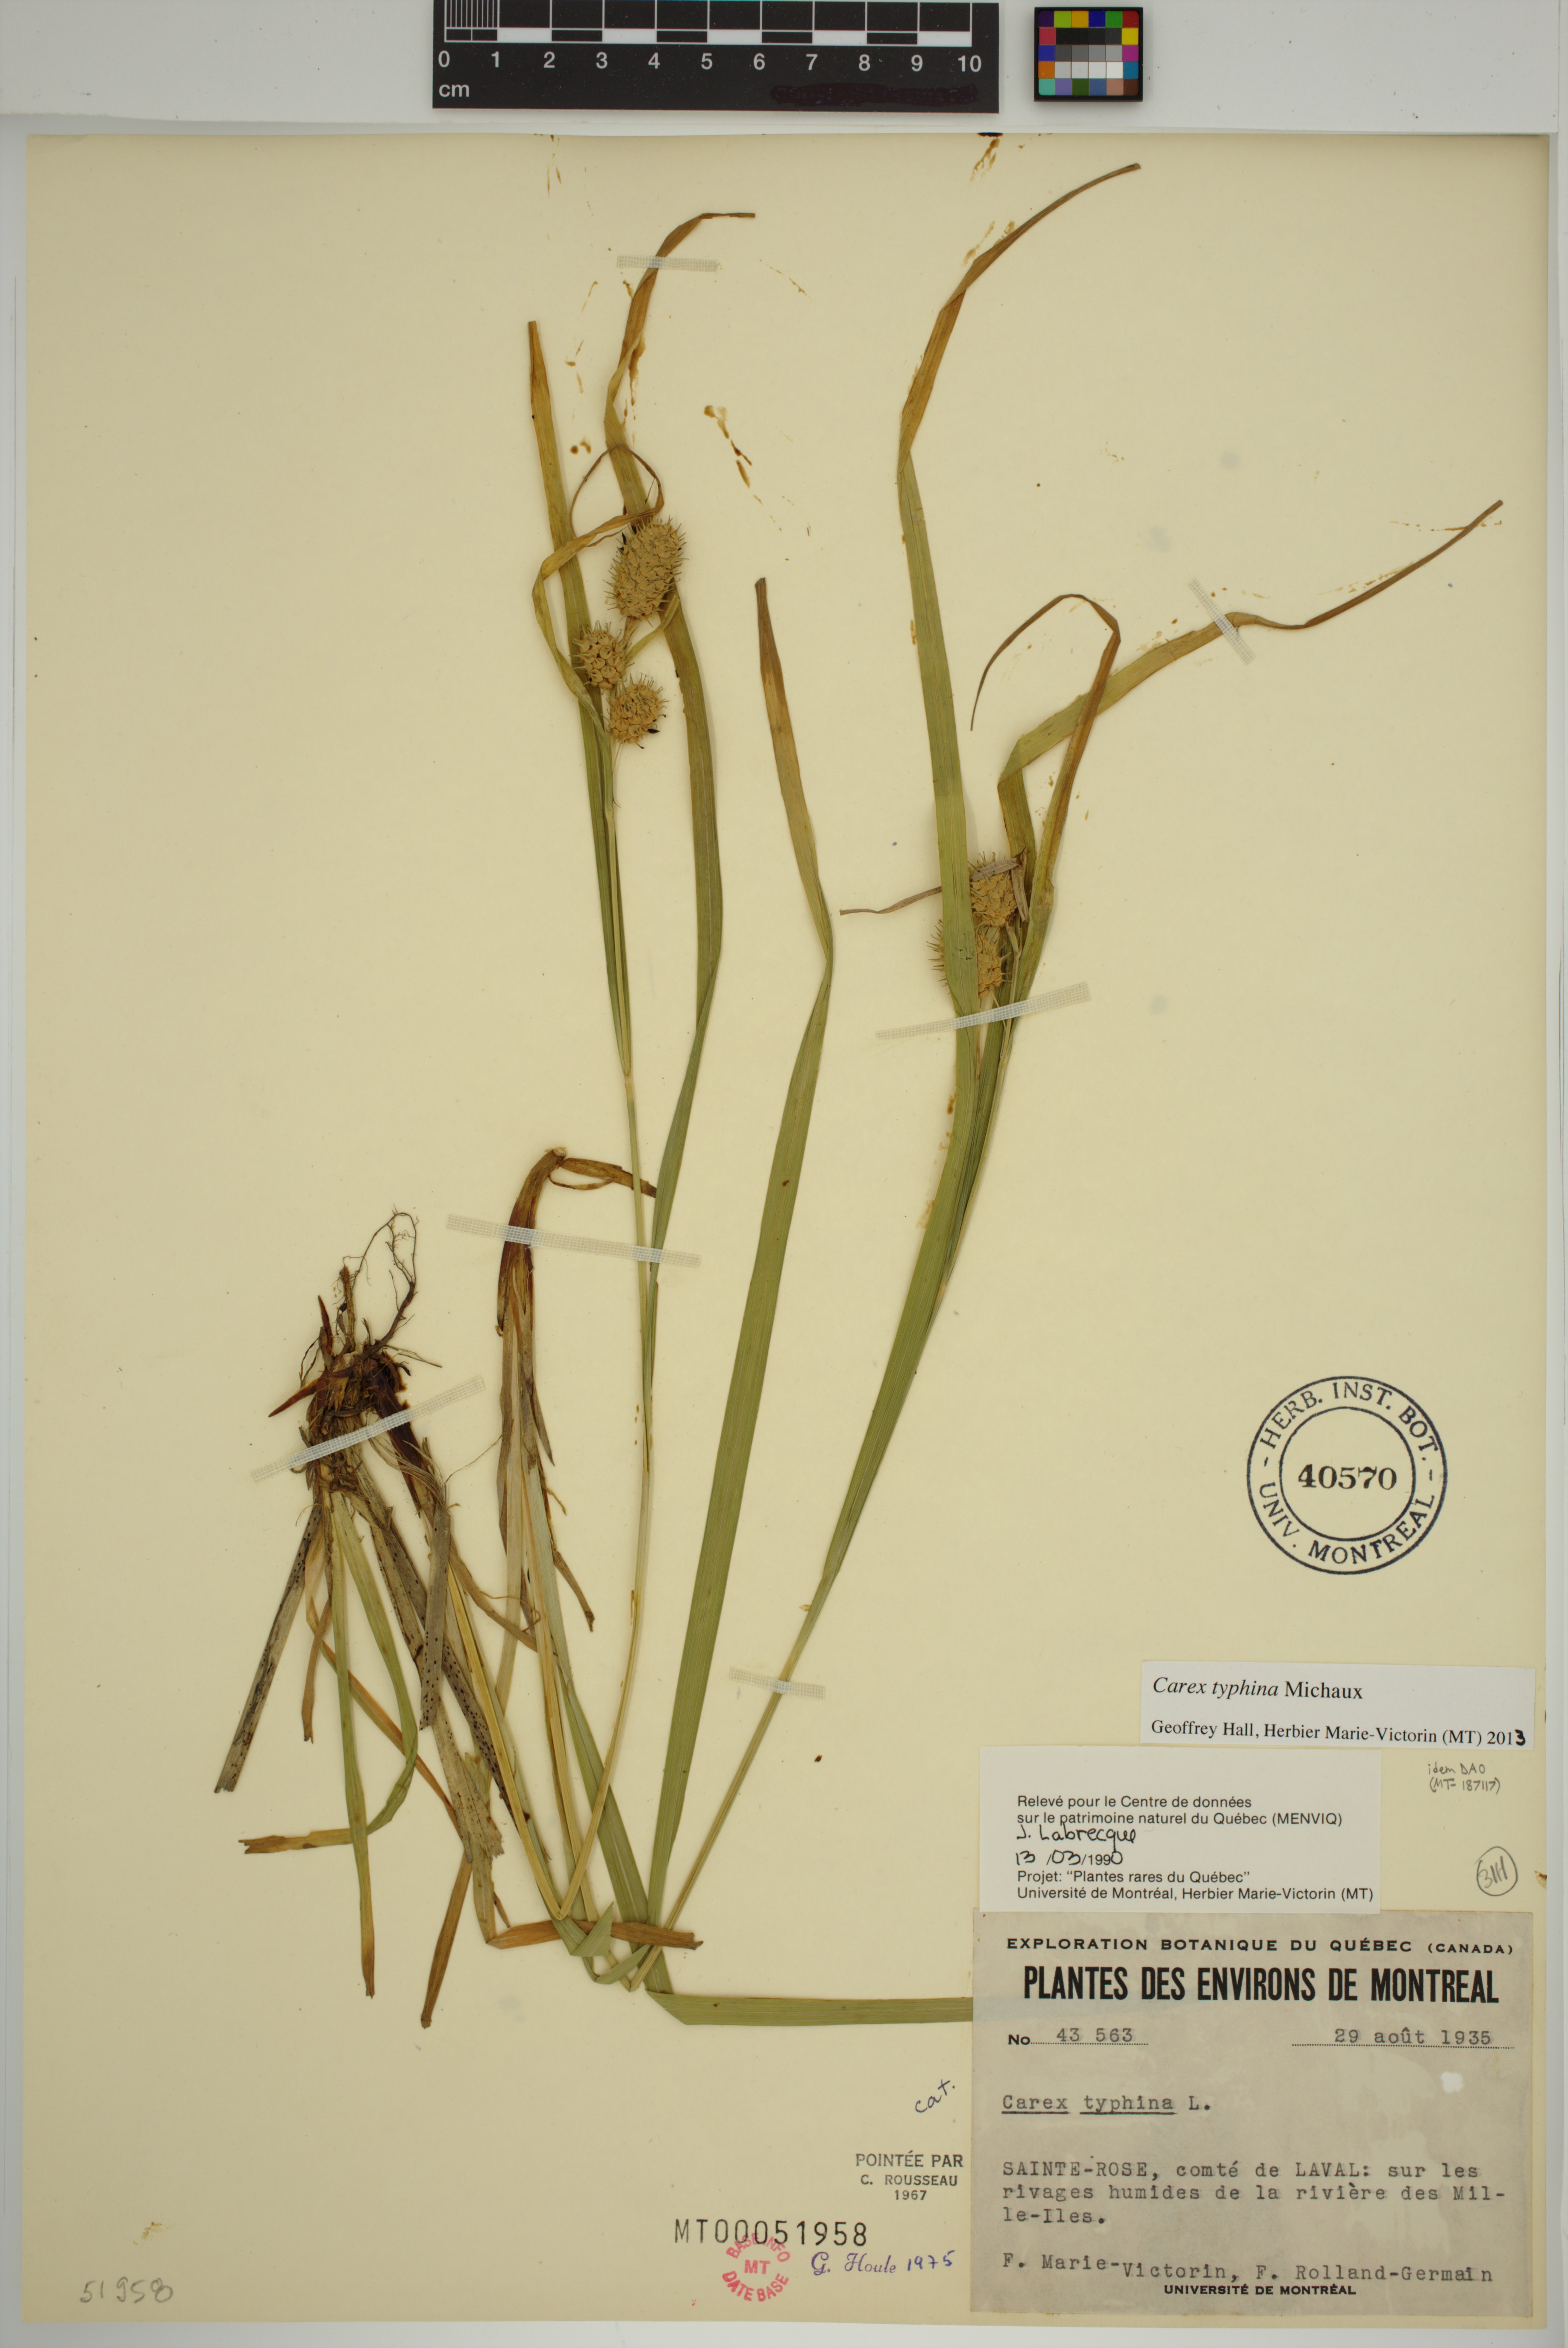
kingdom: Plantae
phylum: Tracheophyta
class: Liliopsida
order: Poales
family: Cyperaceae
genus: Carex
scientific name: Carex typhina
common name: Cattail sedge
